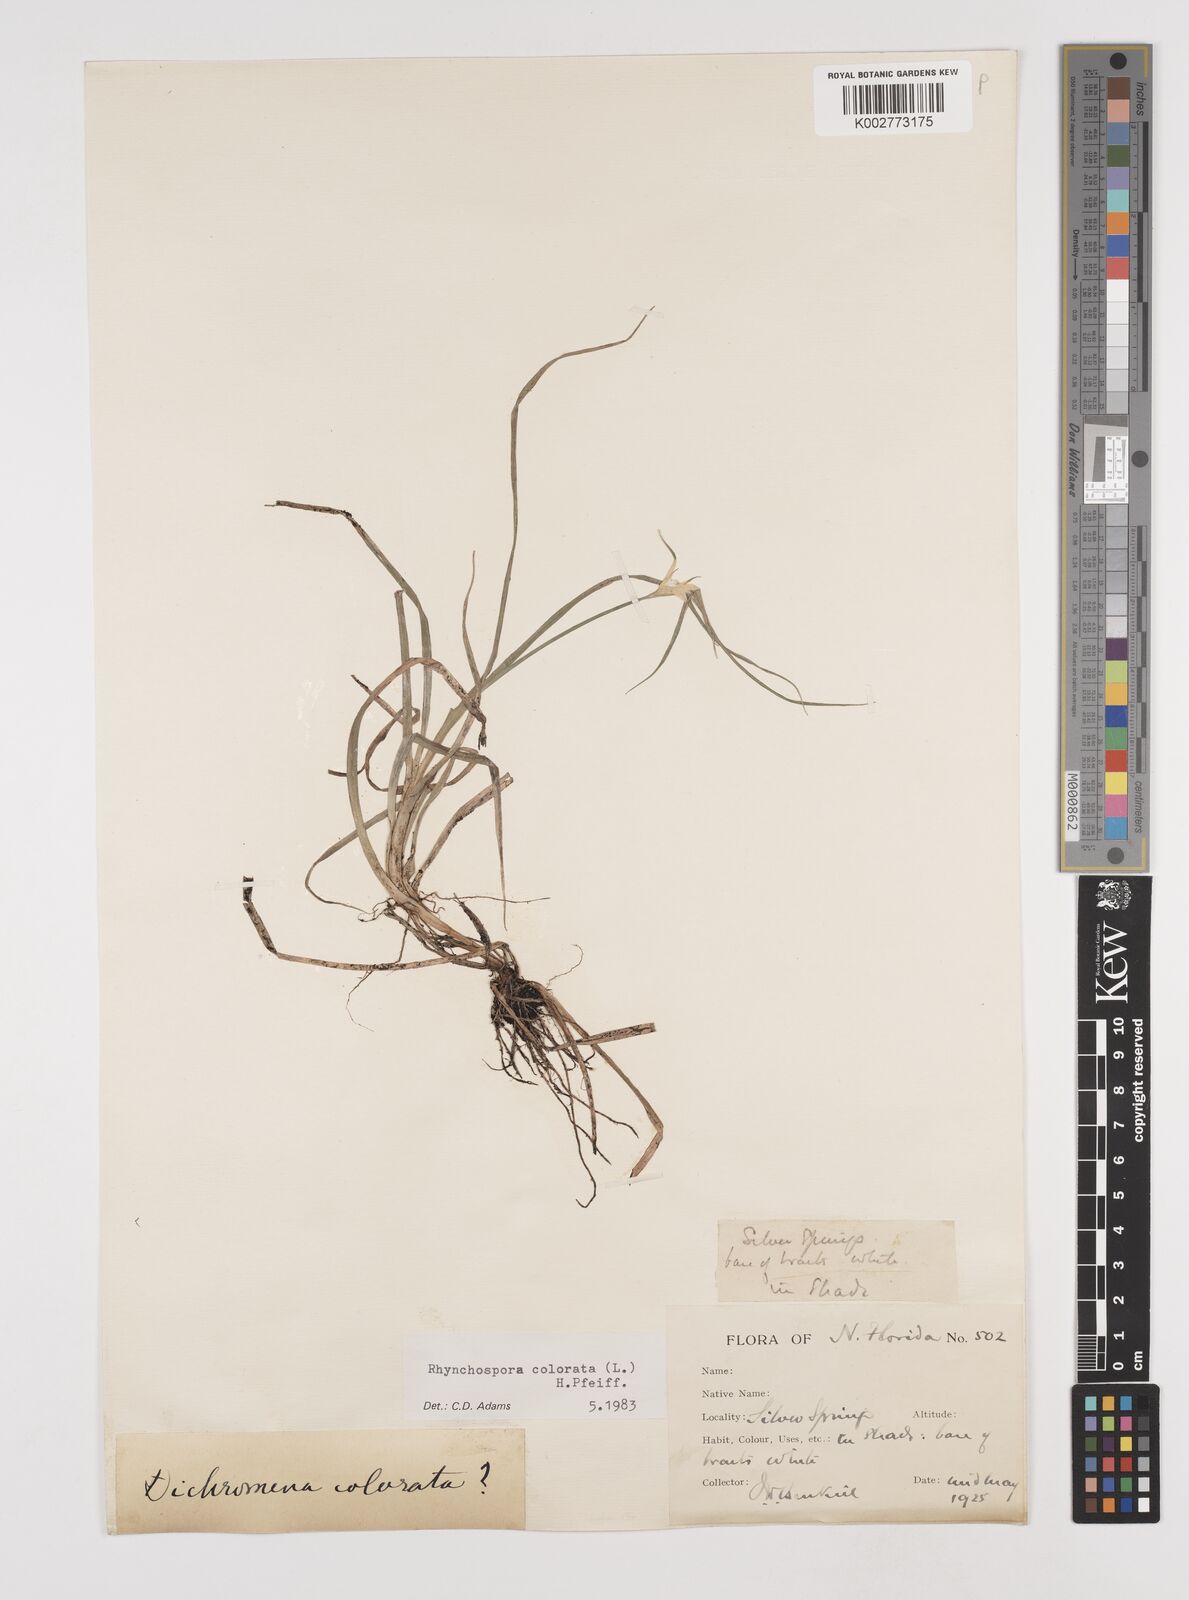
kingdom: Plantae
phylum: Tracheophyta
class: Liliopsida
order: Poales
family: Cyperaceae
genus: Rhynchospora
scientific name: Rhynchospora colorata
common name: Star sedge
